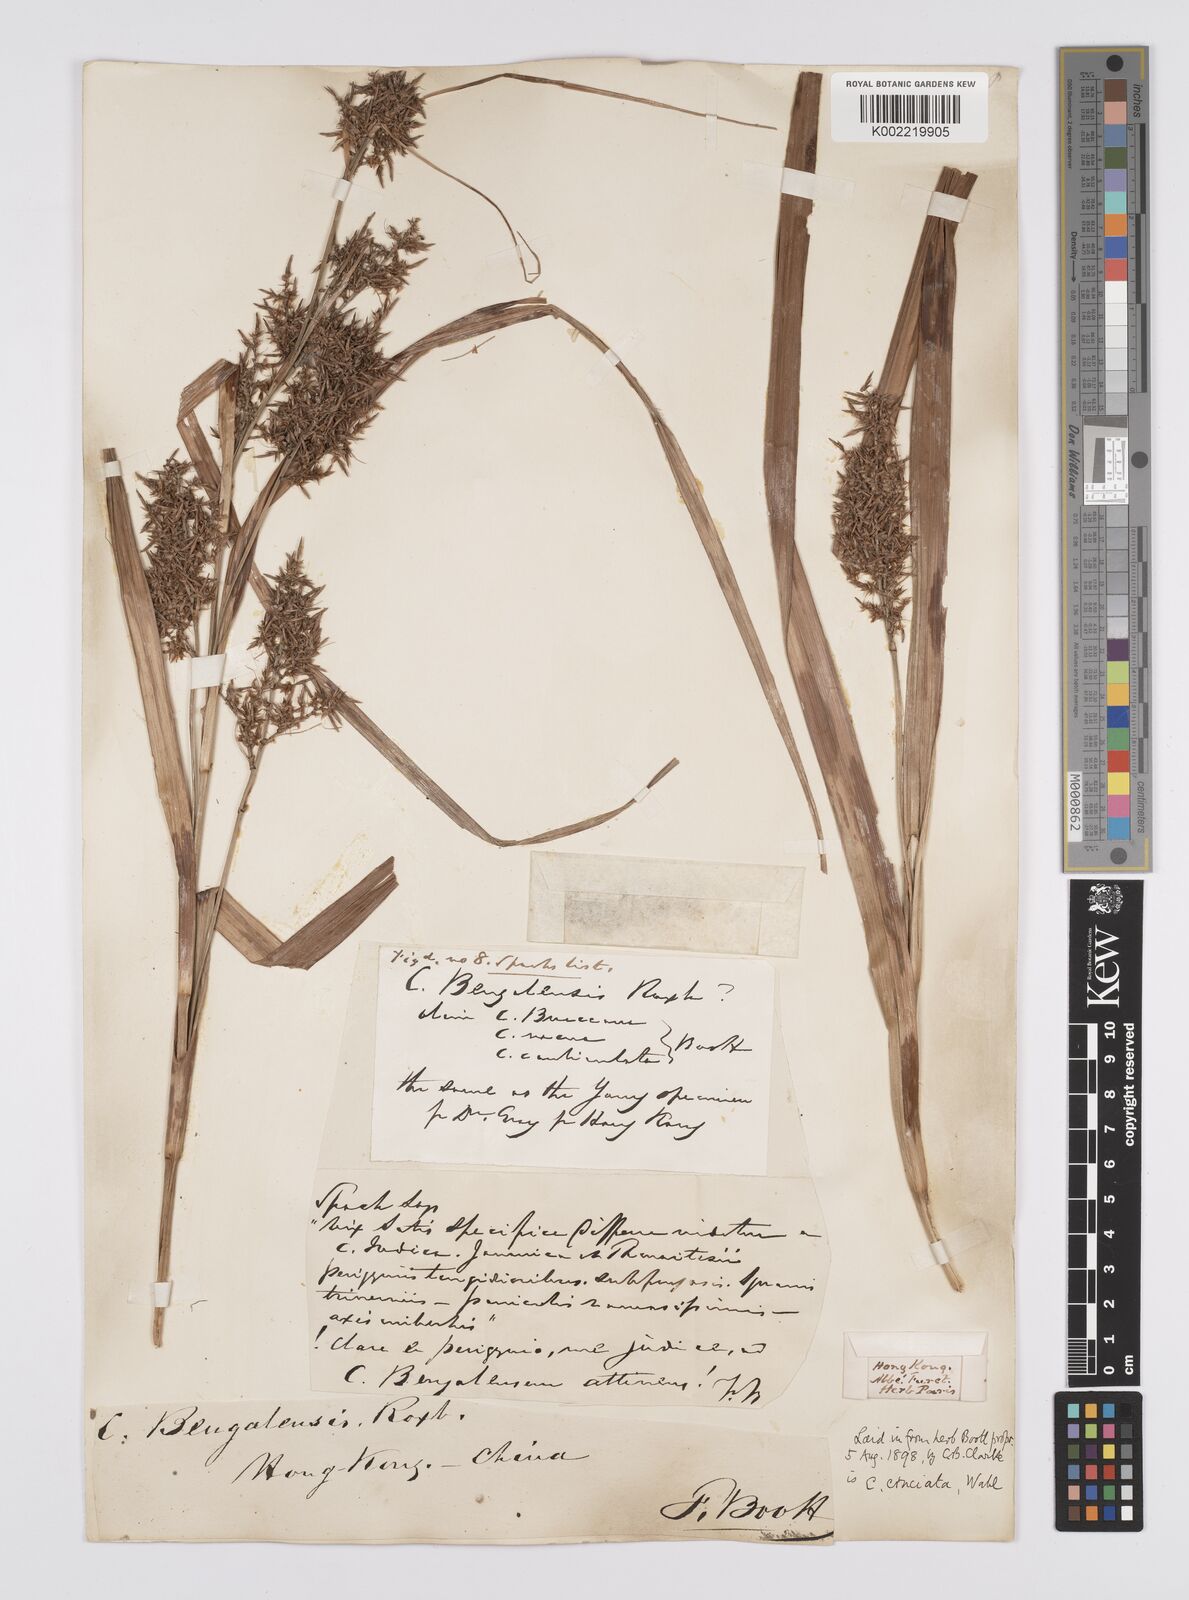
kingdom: Plantae
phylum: Tracheophyta
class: Liliopsida
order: Poales
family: Cyperaceae
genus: Carex
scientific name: Carex cruciata
